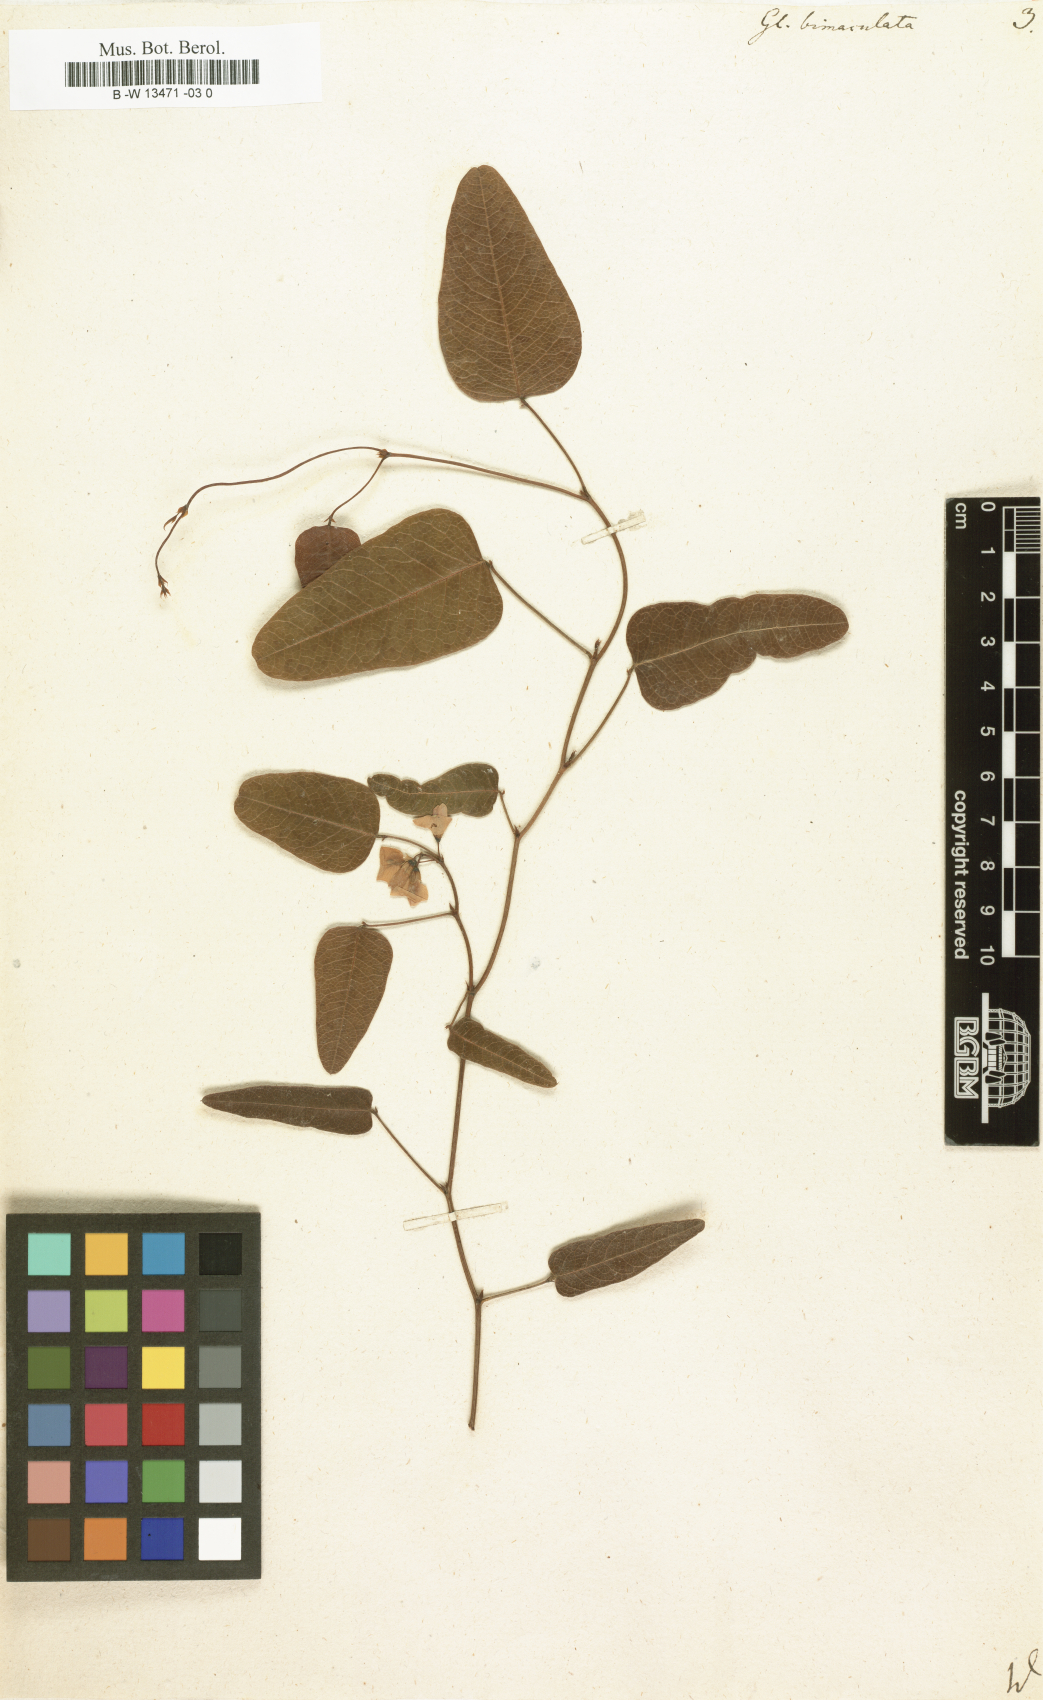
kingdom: Plantae
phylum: Tracheophyta
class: Magnoliopsida
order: Fabales
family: Fabaceae
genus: Hardenbergia
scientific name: Hardenbergia violacea
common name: Coral-pea
